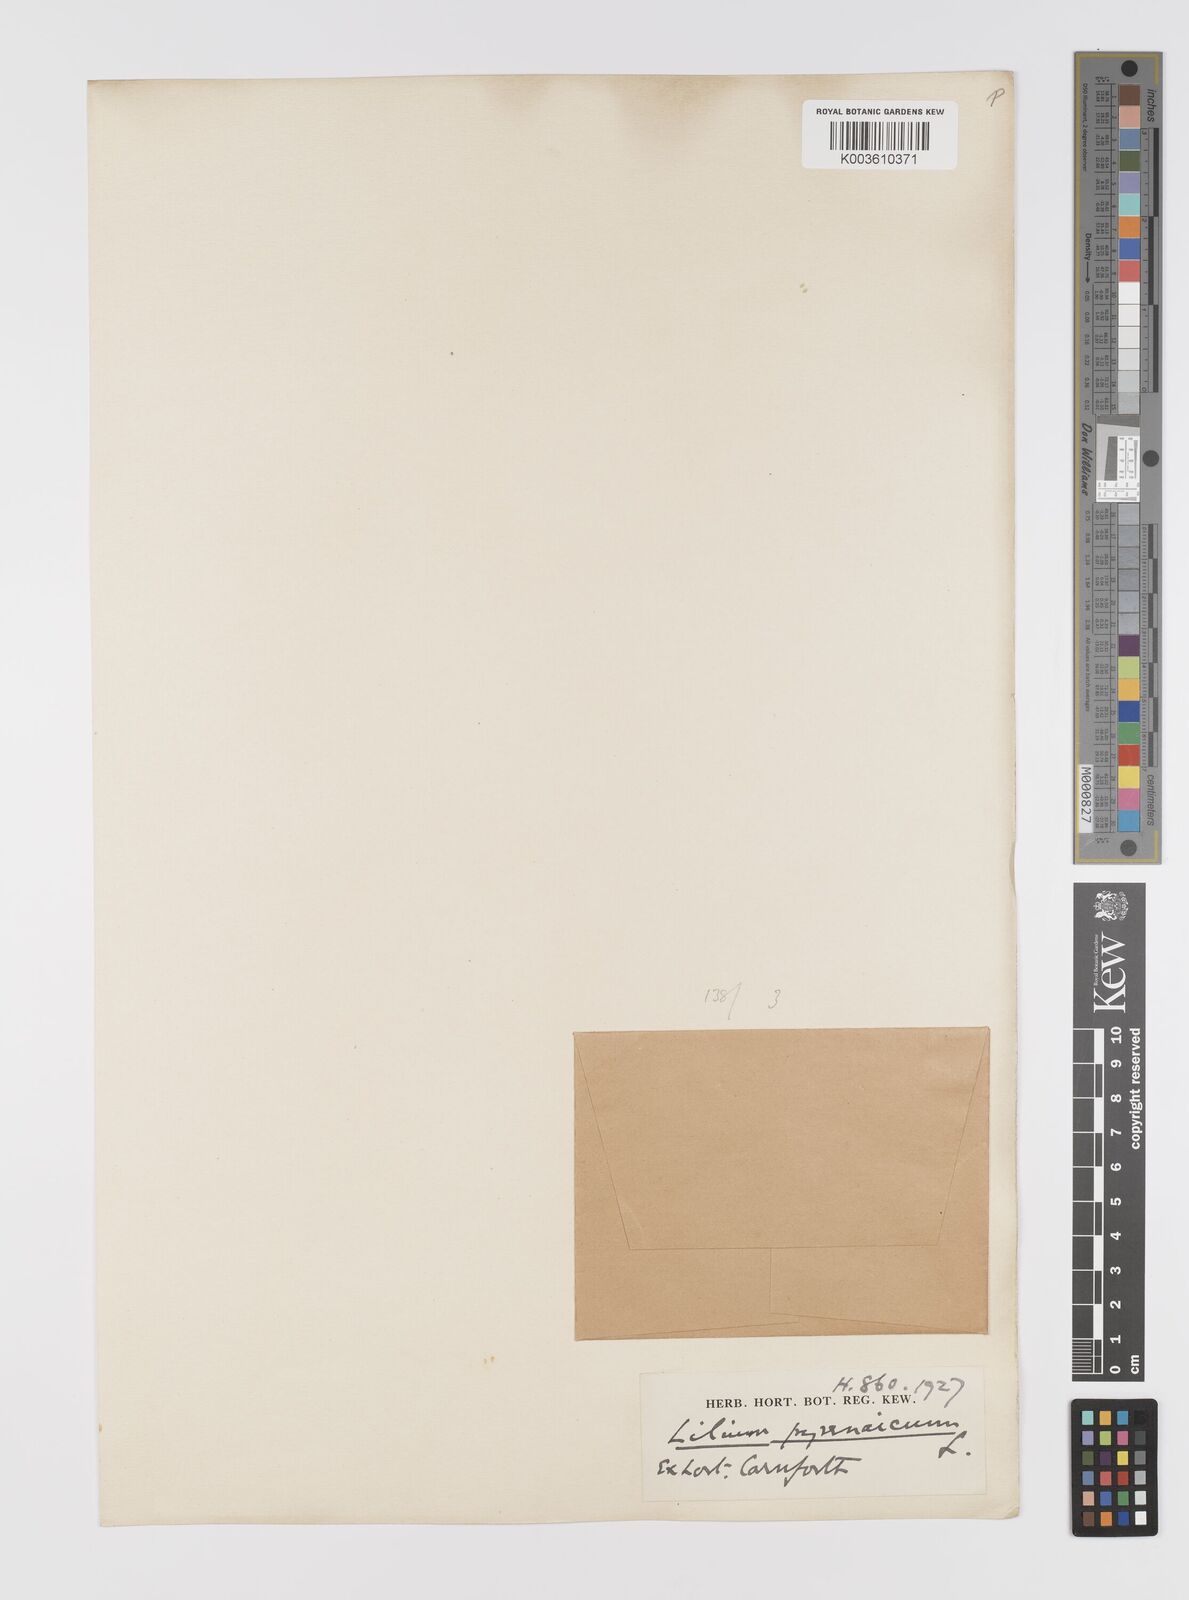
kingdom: Plantae
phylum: Tracheophyta
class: Liliopsida
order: Liliales
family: Liliaceae
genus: Lilium
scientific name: Lilium pyrenaicum
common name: Pyrenean lily
